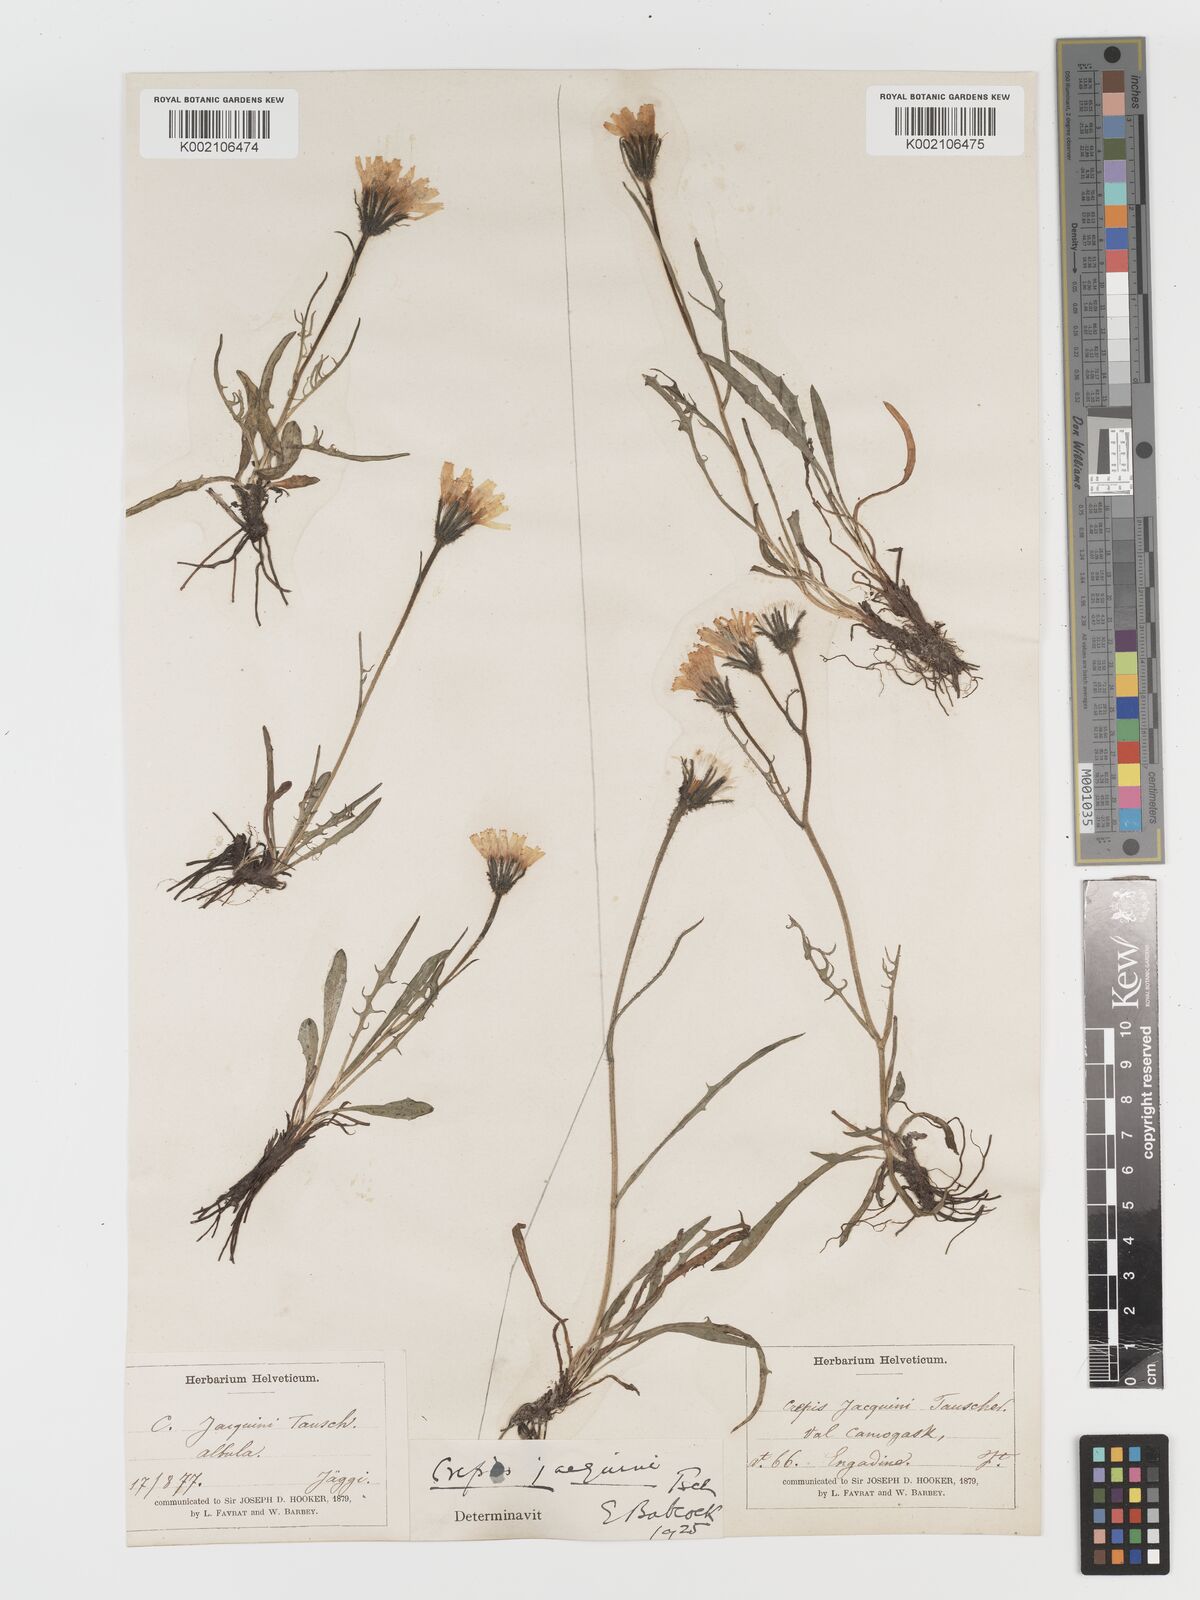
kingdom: Plantae
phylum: Tracheophyta
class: Magnoliopsida
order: Asterales
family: Asteraceae
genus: Crepis
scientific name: Crepis jacquinii
